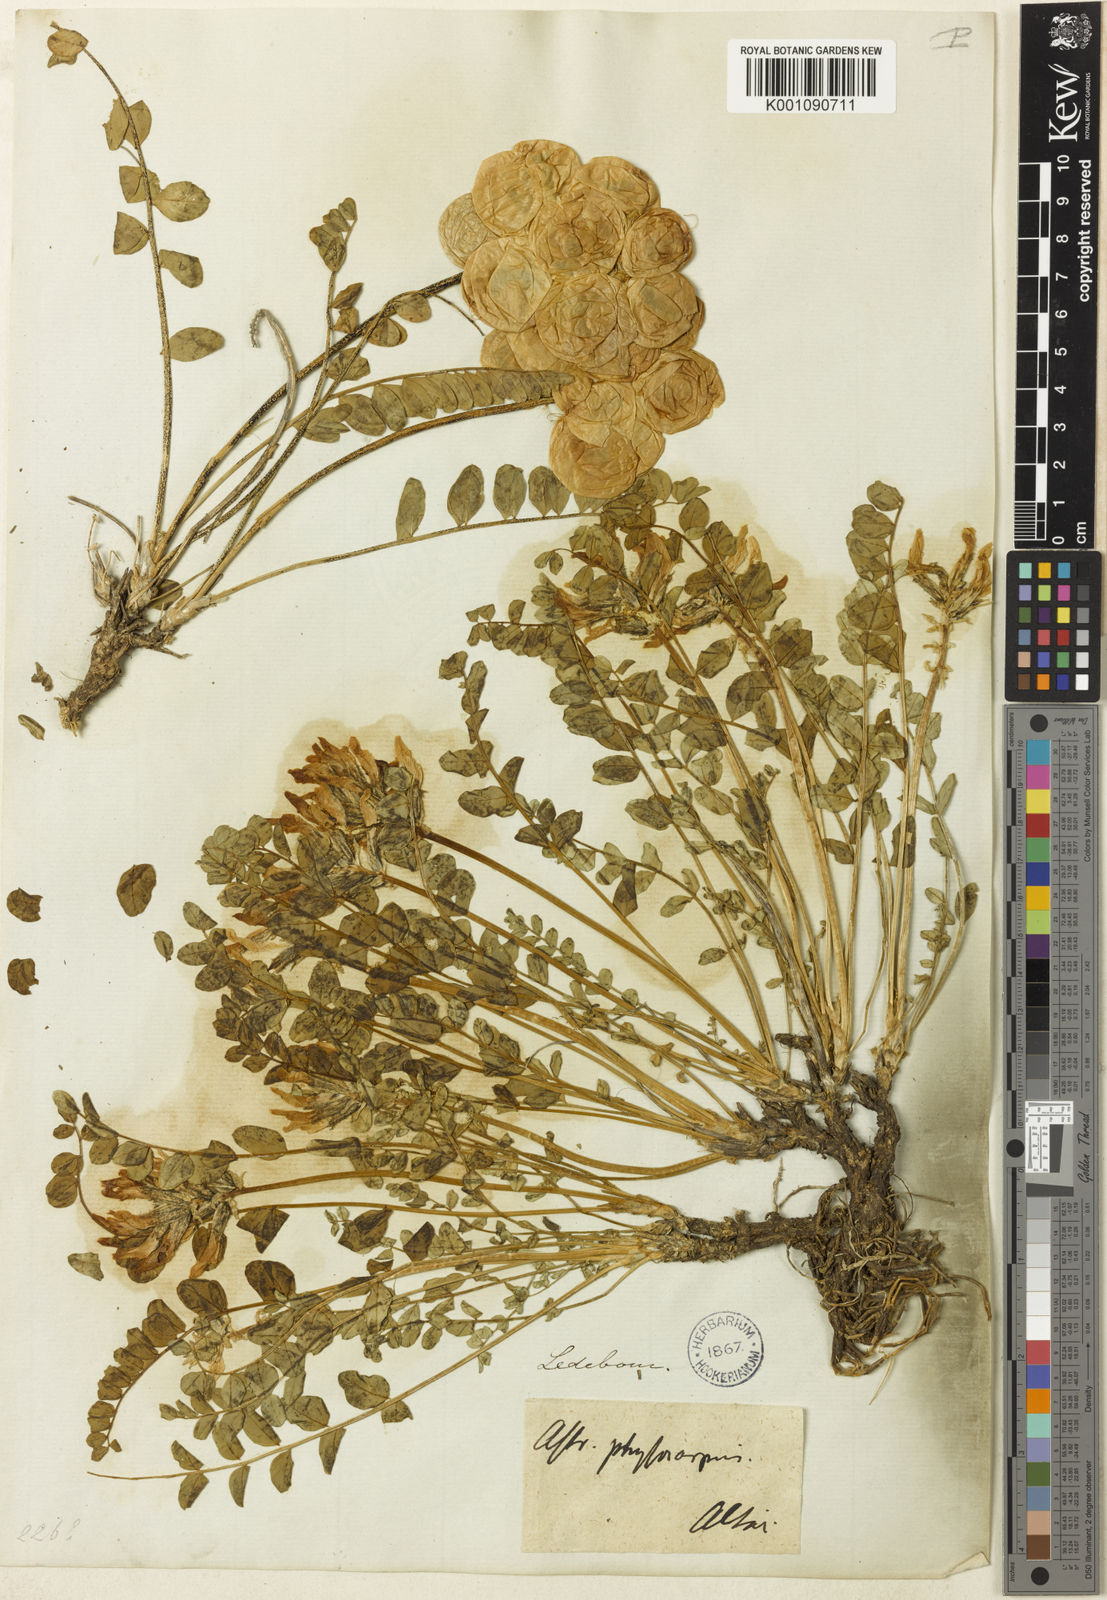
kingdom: Plantae
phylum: Tracheophyta
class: Magnoliopsida
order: Fabales
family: Fabaceae
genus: Astragalus
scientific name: Astragalus
